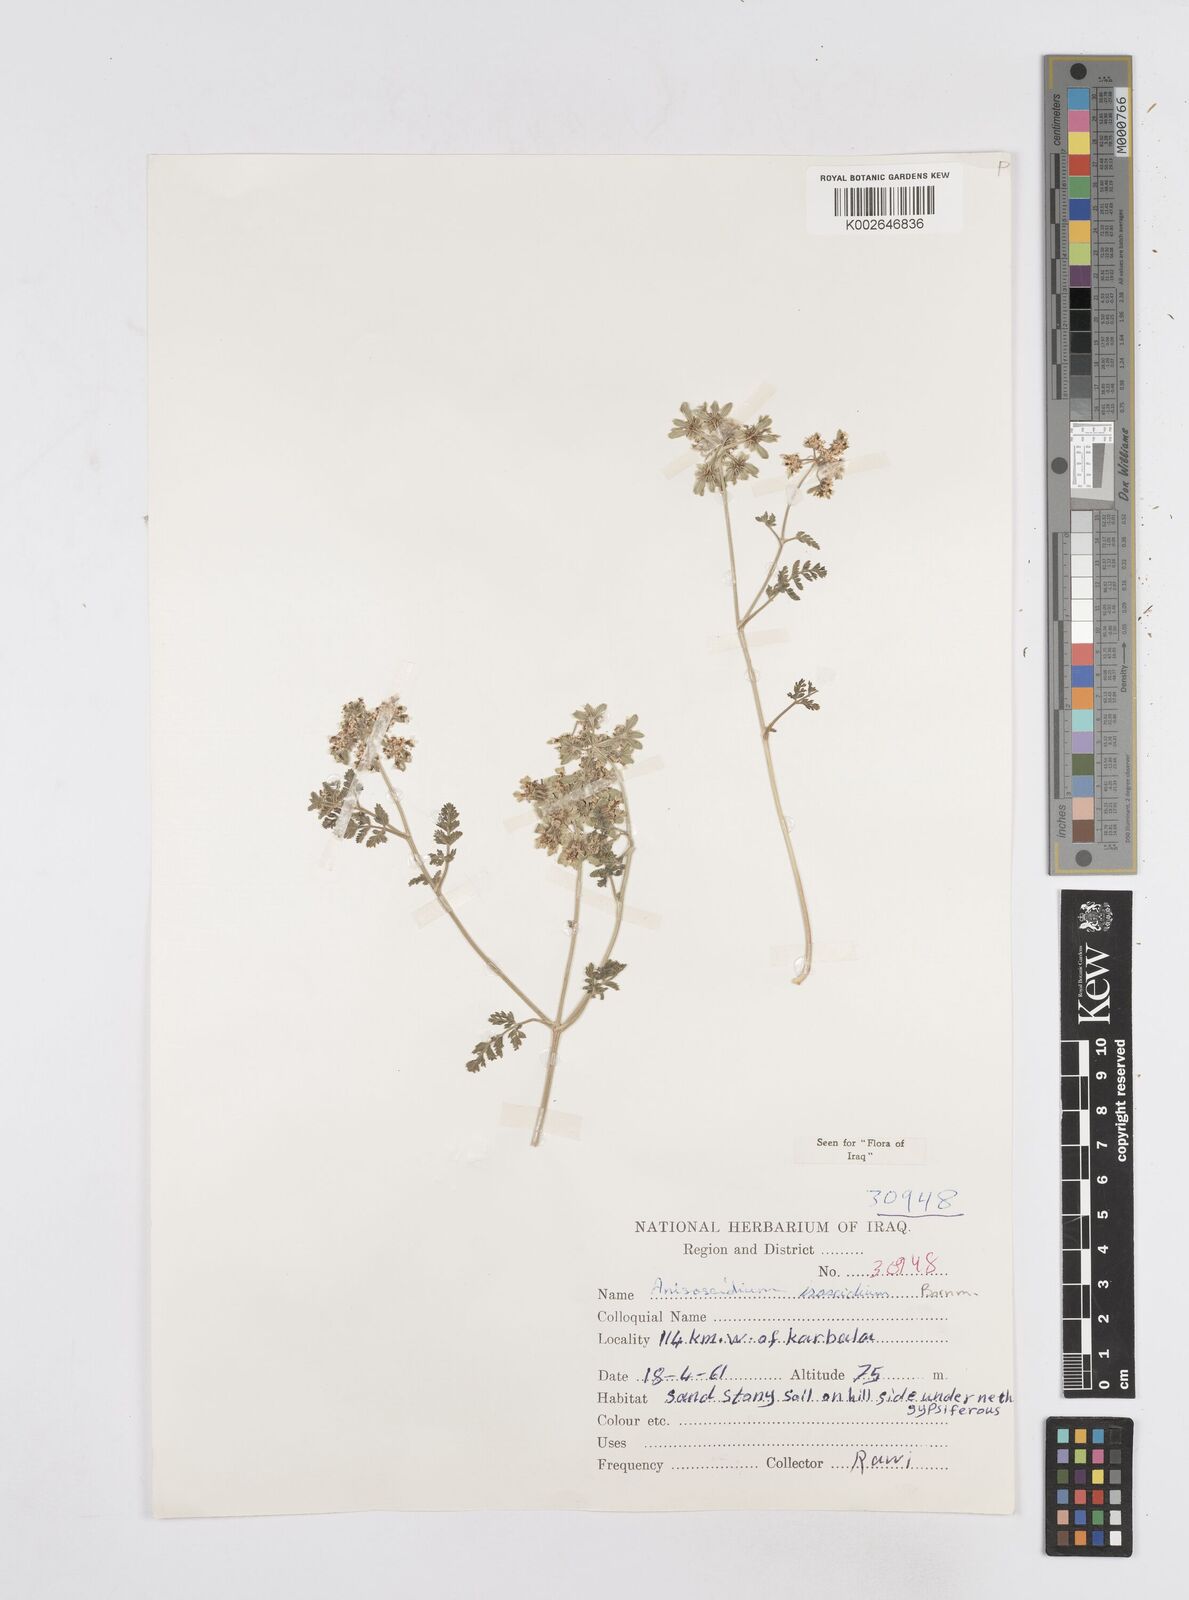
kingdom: Plantae
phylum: Tracheophyta
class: Magnoliopsida
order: Apiales
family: Apiaceae
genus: Anisosciadium
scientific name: Anisosciadium isosciadium
